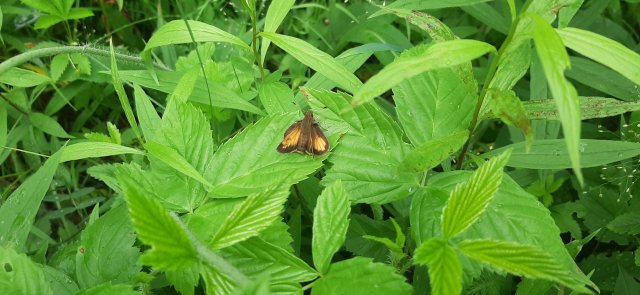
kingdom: Animalia
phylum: Arthropoda
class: Insecta
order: Lepidoptera
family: Hesperiidae
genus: Lon
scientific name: Lon hobomok
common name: Hobomok Skipper
